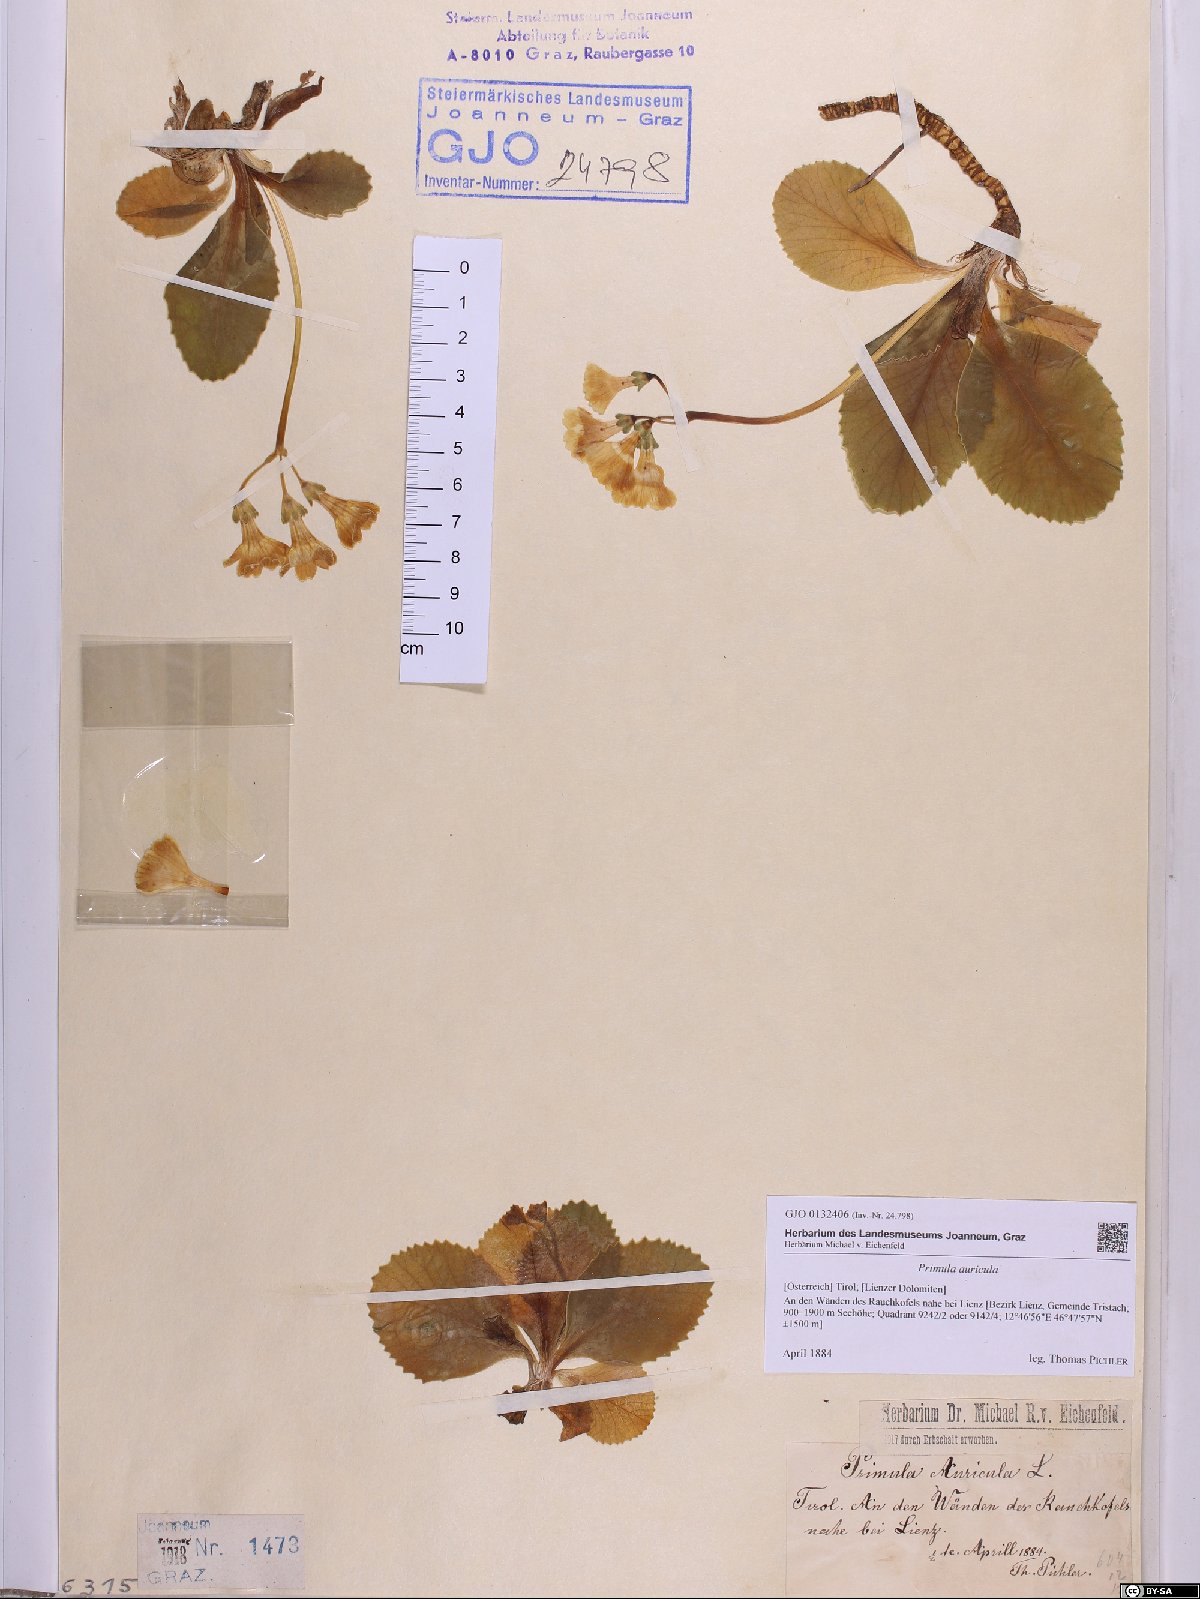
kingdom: Plantae
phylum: Tracheophyta
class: Magnoliopsida
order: Ericales
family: Primulaceae
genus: Primula
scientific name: Primula auricula
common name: Auricula
